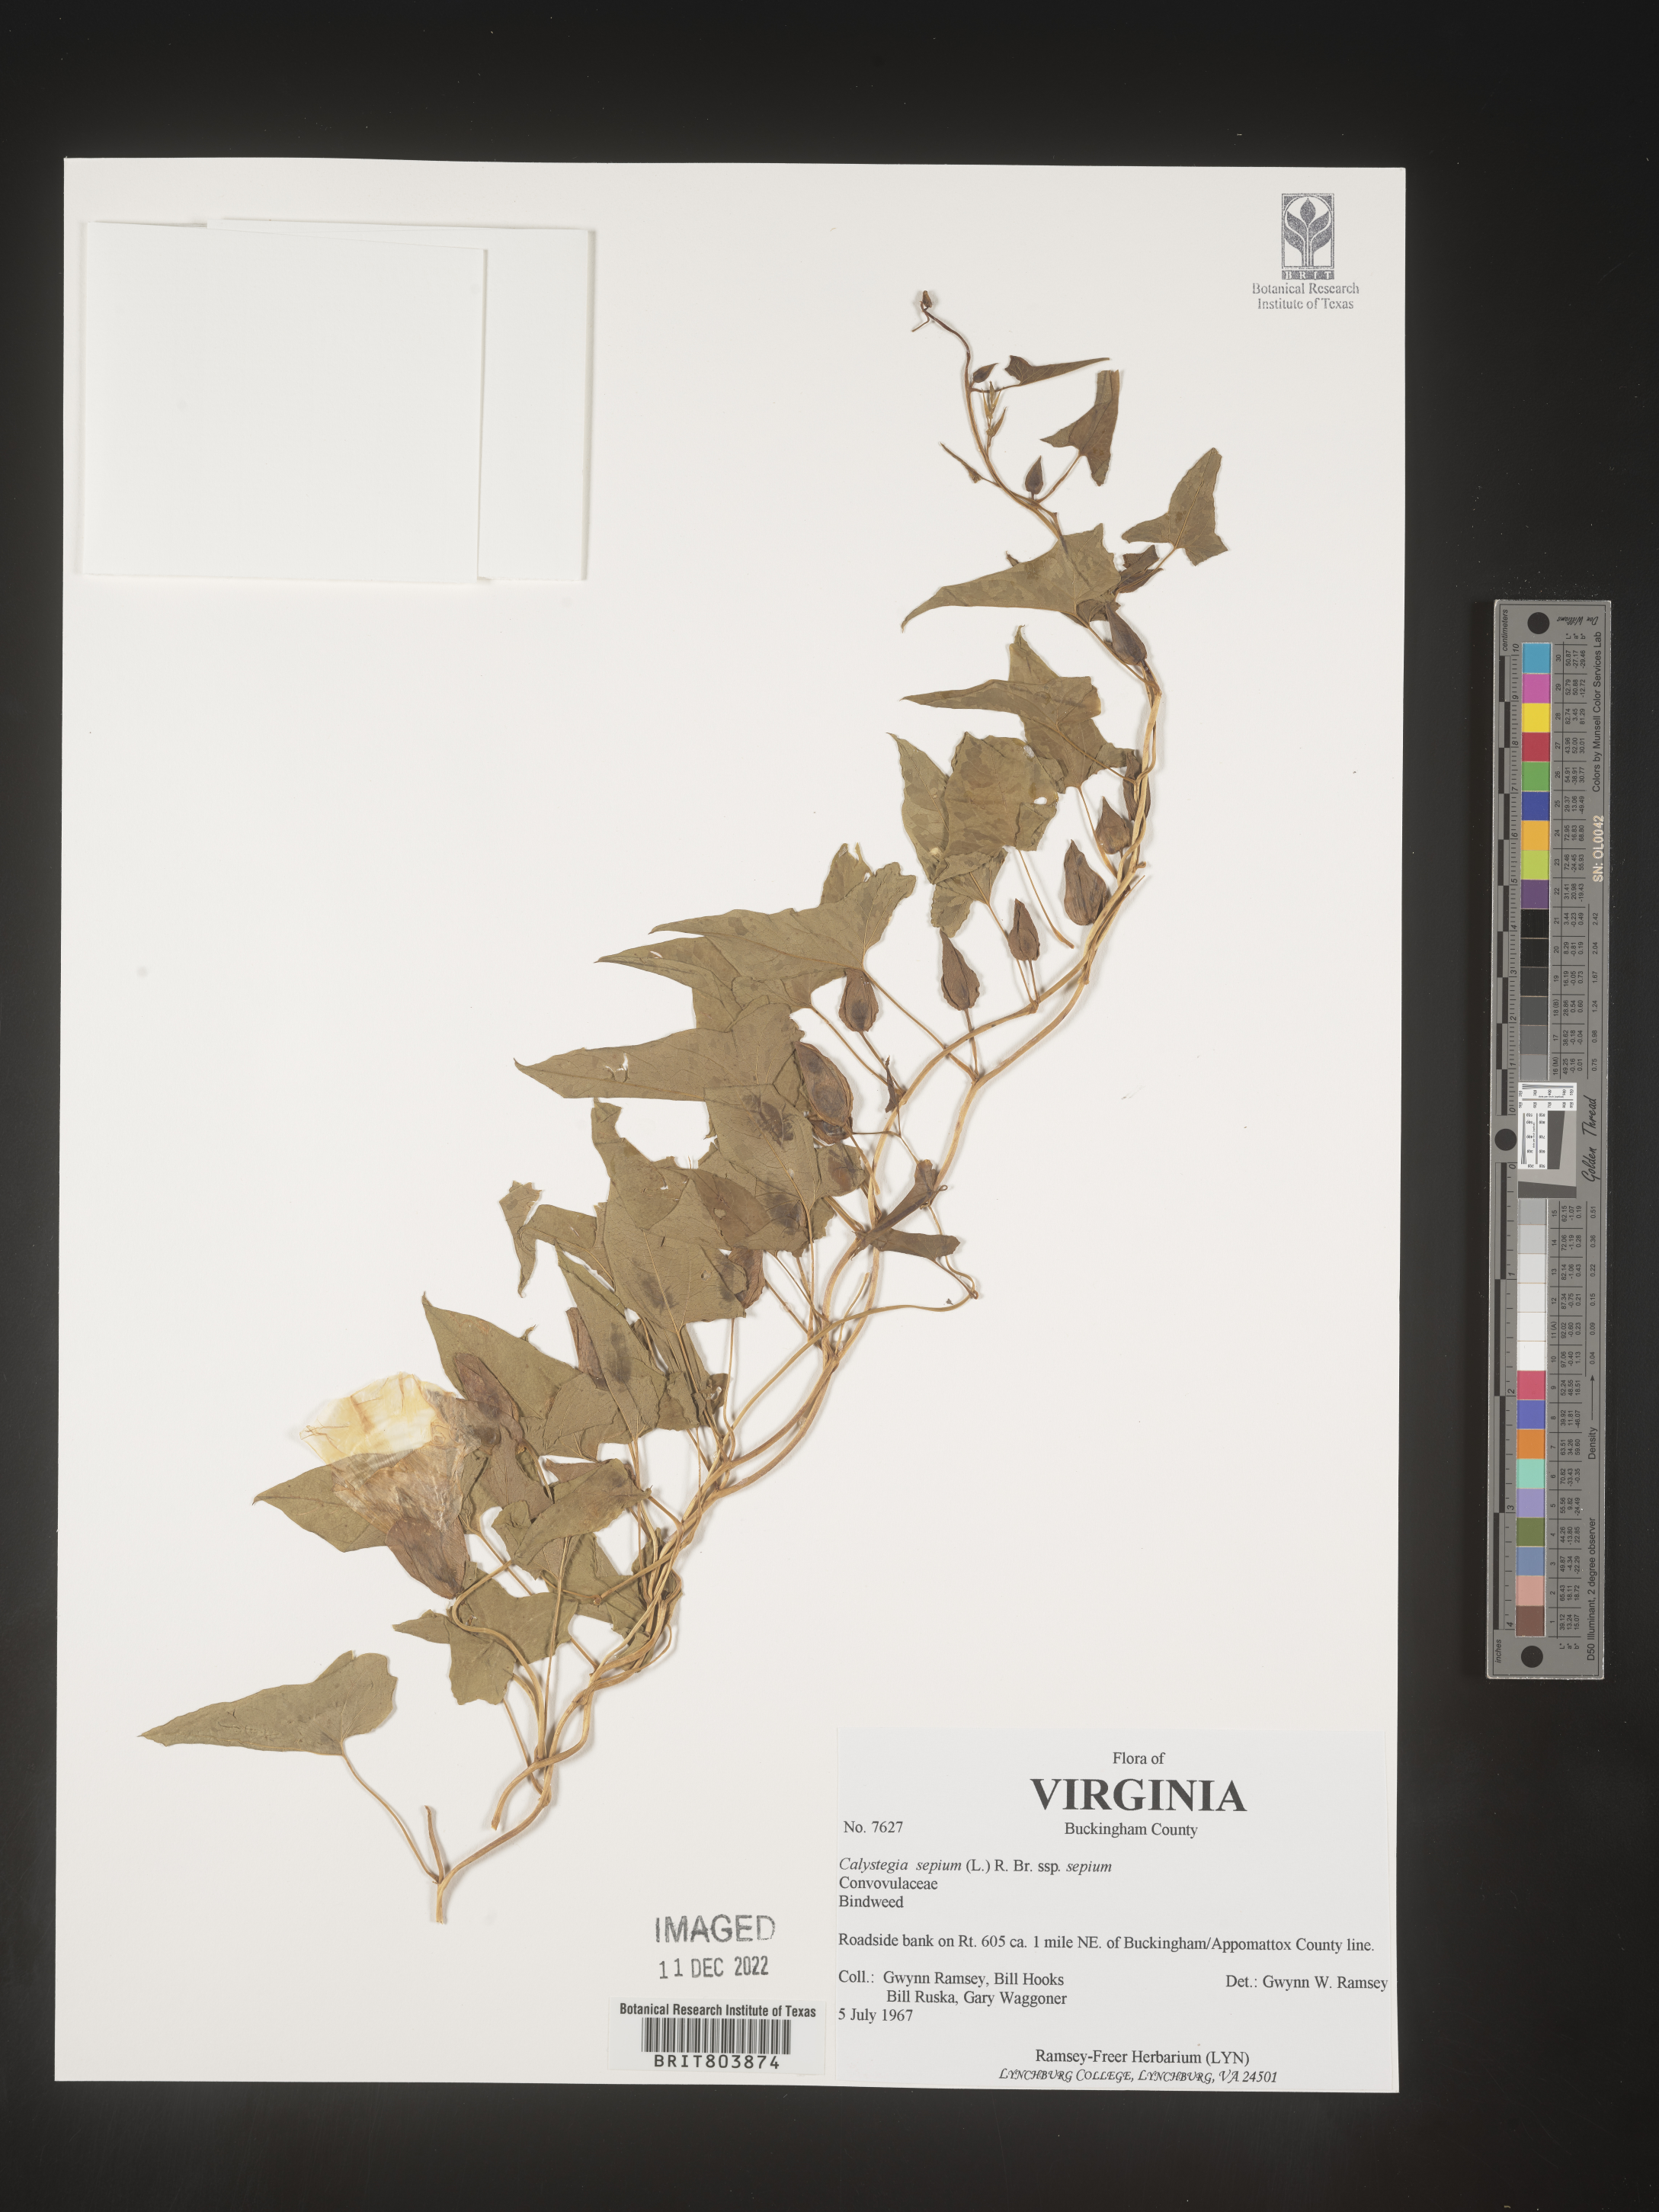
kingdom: Plantae
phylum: Tracheophyta
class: Magnoliopsida
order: Solanales
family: Convolvulaceae
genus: Calystegia
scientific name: Calystegia sepium
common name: Hedge bindweed
